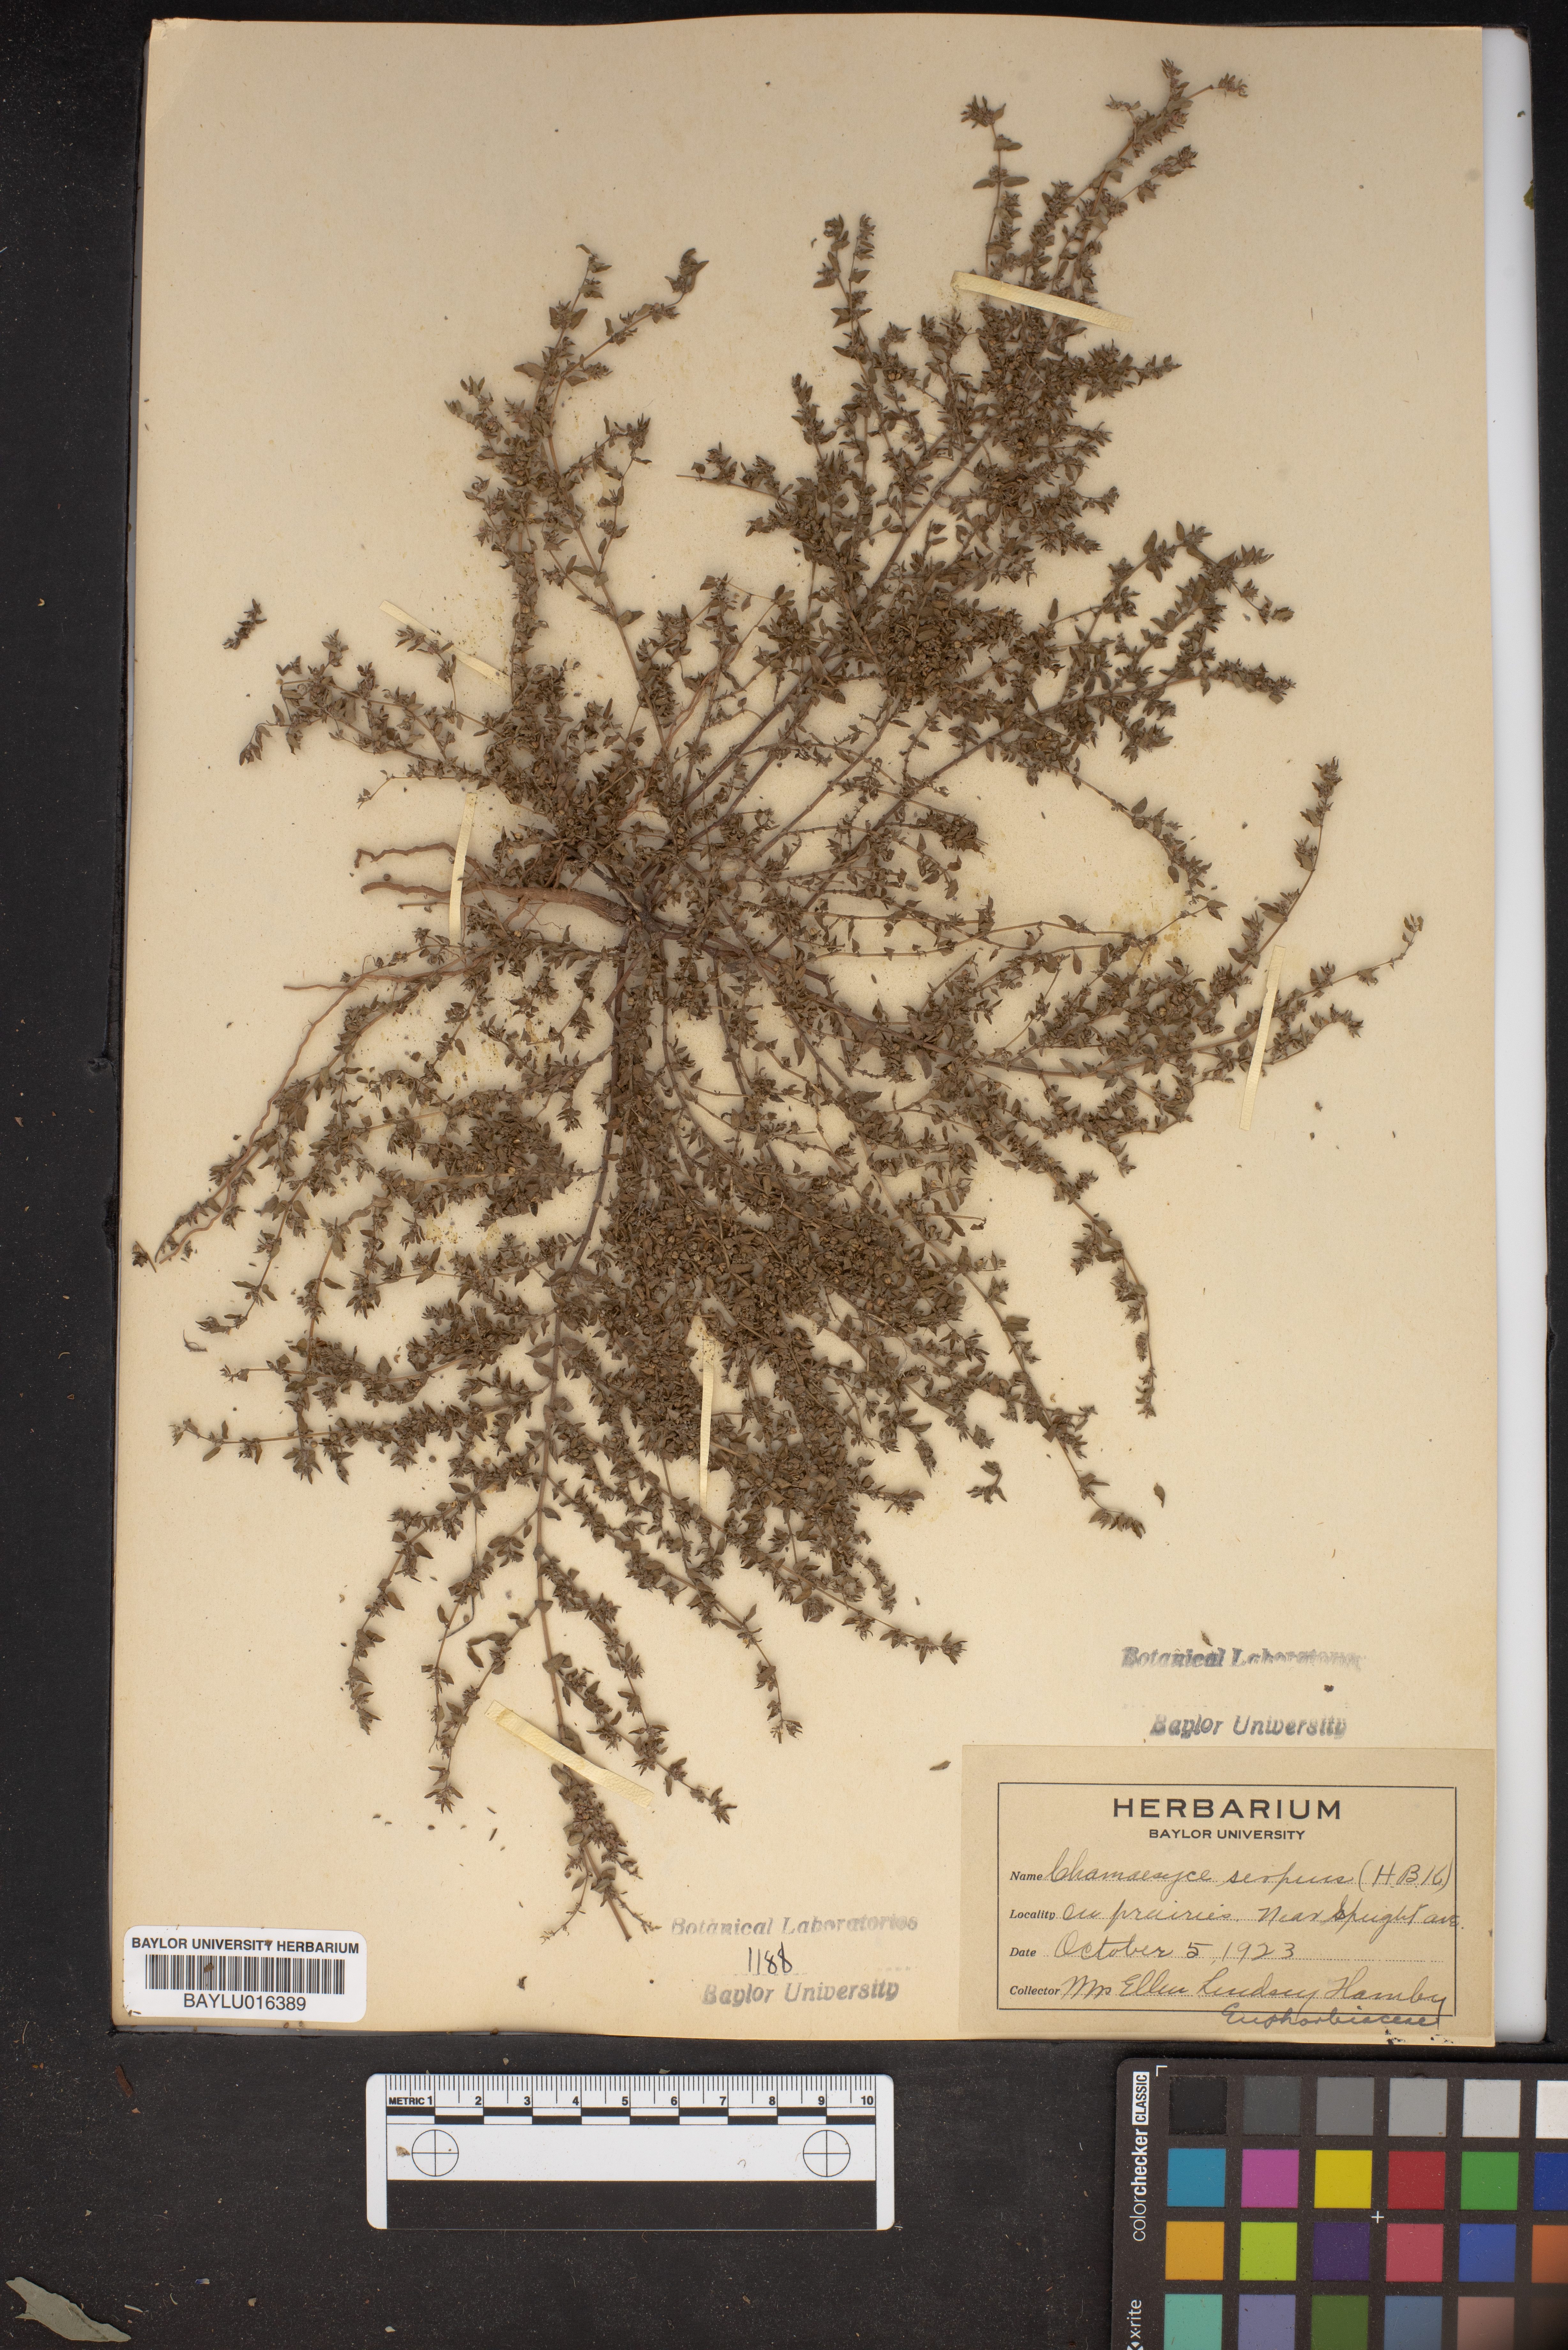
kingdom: Plantae
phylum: Tracheophyta
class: Magnoliopsida
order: Malpighiales
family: Euphorbiaceae
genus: Euphorbia
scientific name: Euphorbia serpens
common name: Matted sandmat
